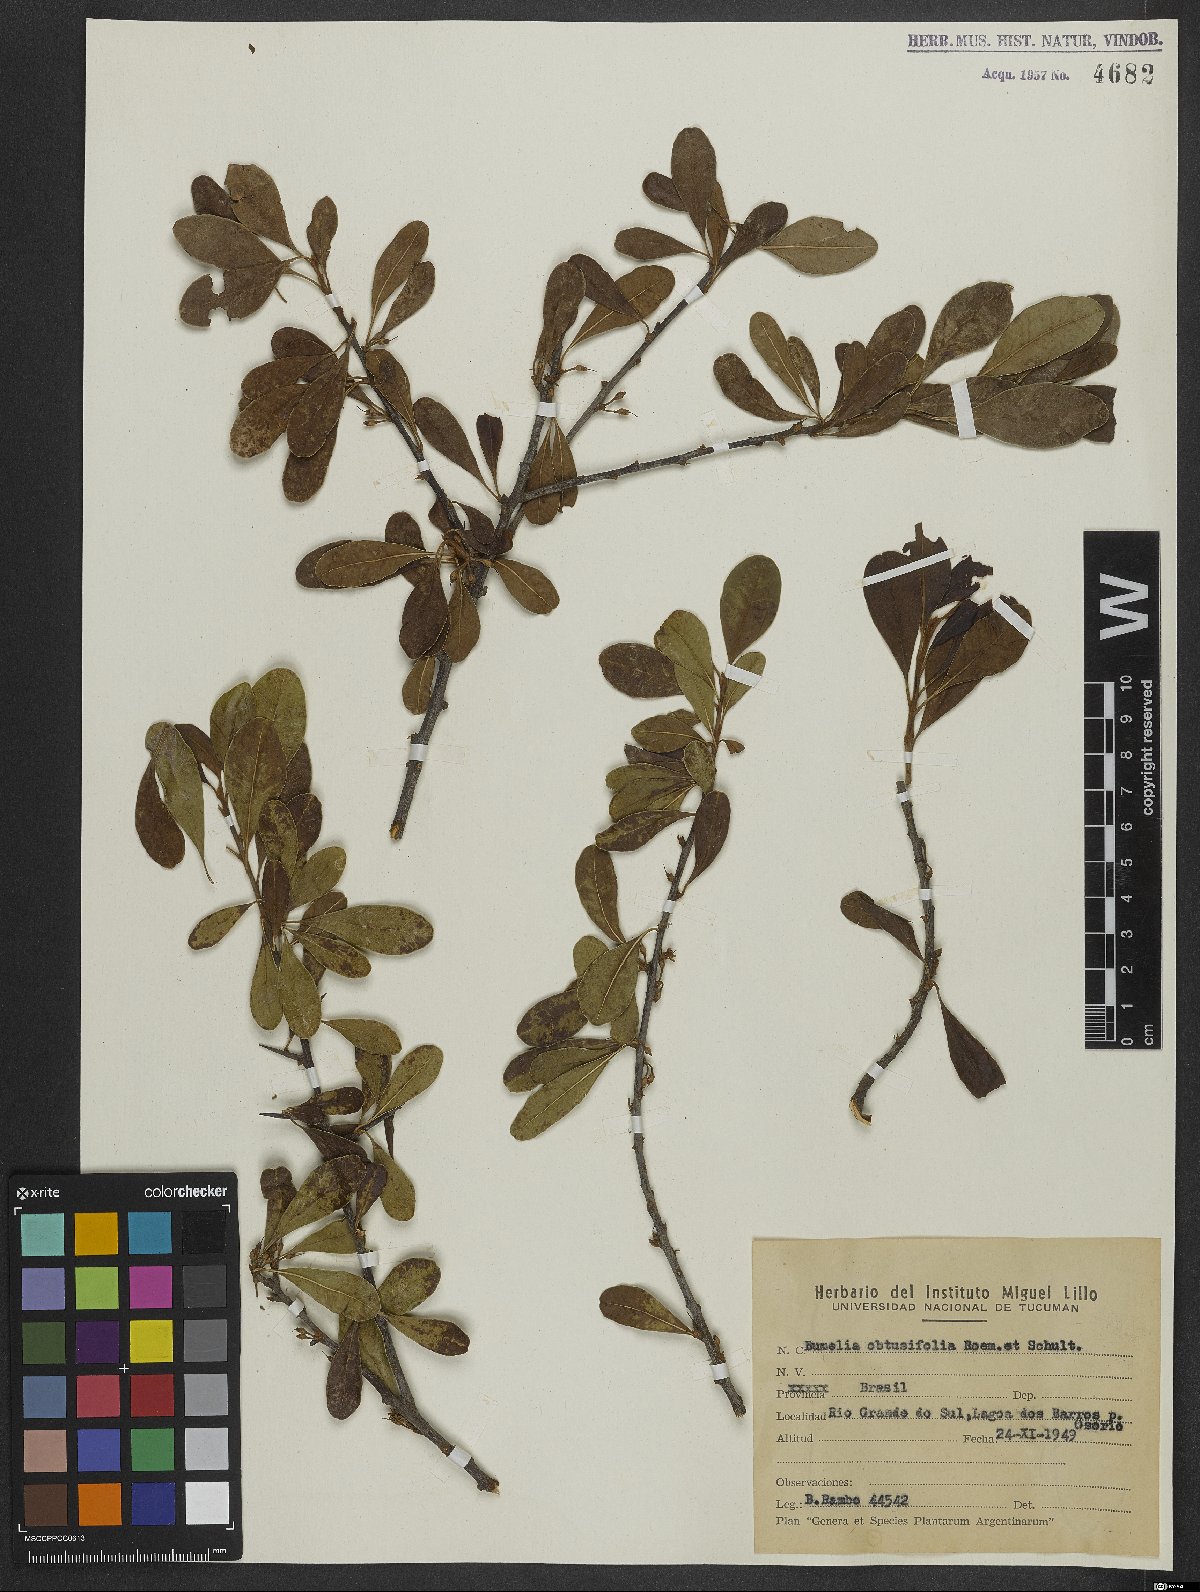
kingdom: Plantae
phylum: Tracheophyta
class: Magnoliopsida
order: Ericales
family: Sapotaceae
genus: Sideroxylon
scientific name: Sideroxylon obtusifolium
